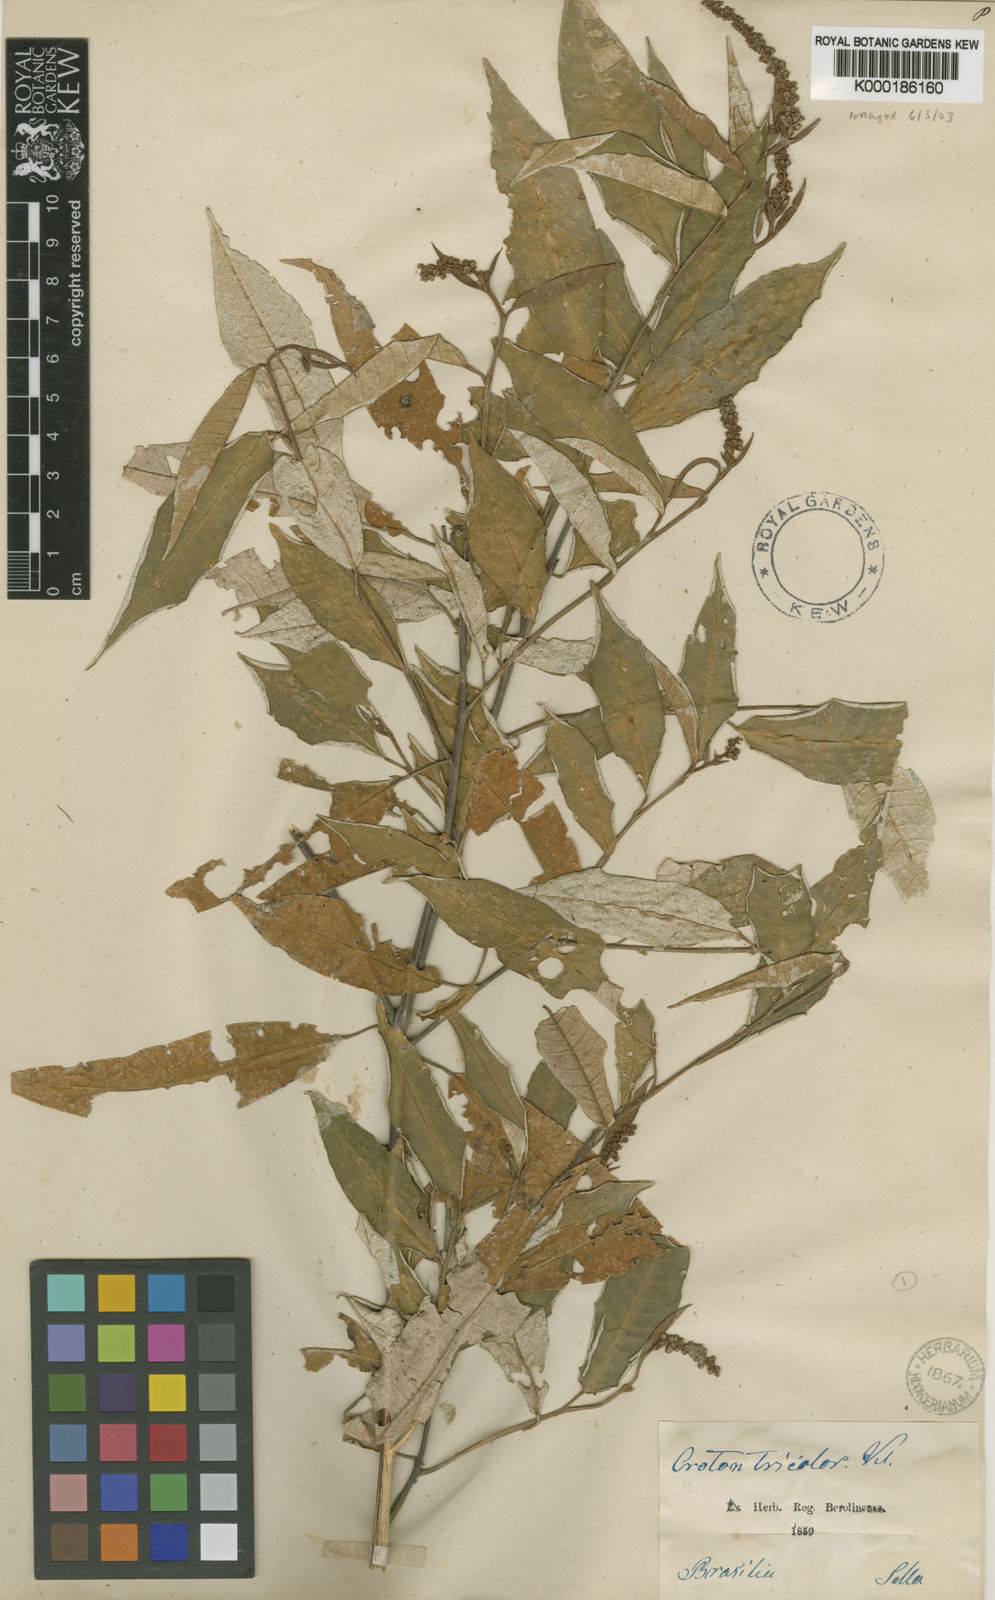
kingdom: Plantae
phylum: Tracheophyta
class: Magnoliopsida
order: Malpighiales
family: Euphorbiaceae
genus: Croton
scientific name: Croton tricolor
